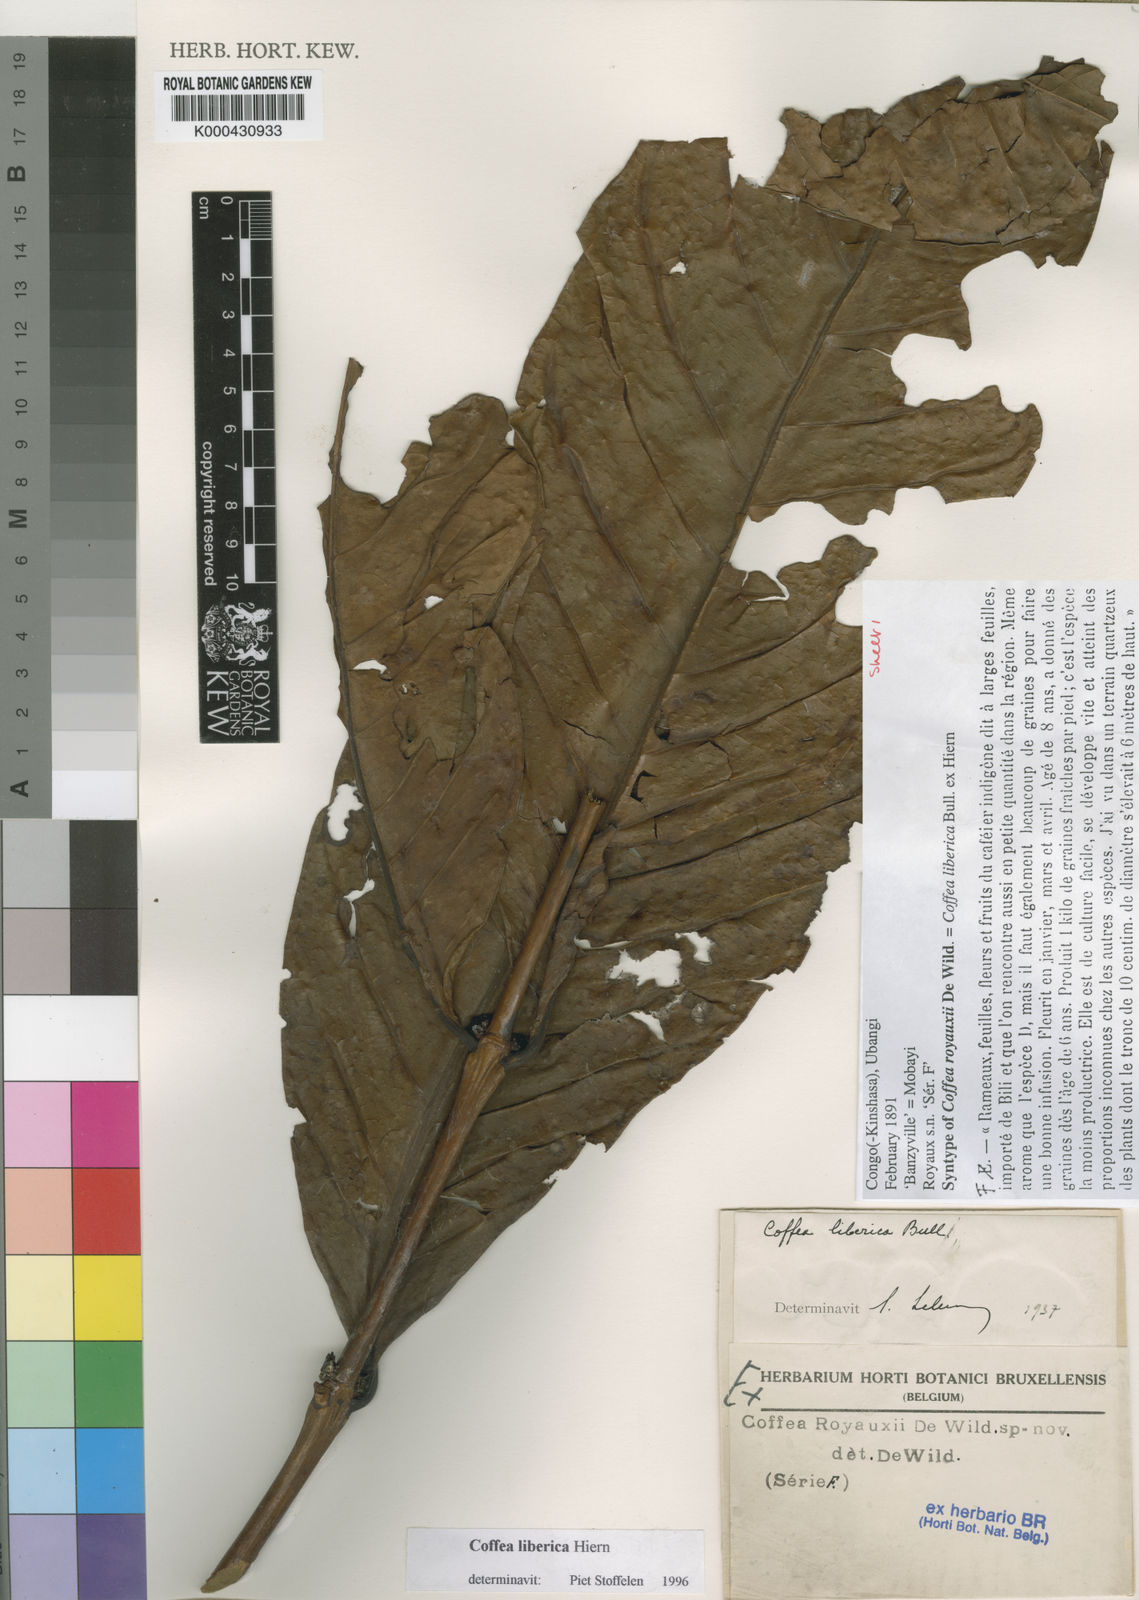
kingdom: Plantae
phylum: Tracheophyta
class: Magnoliopsida
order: Gentianales
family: Rubiaceae
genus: Coffea
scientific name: Coffea
